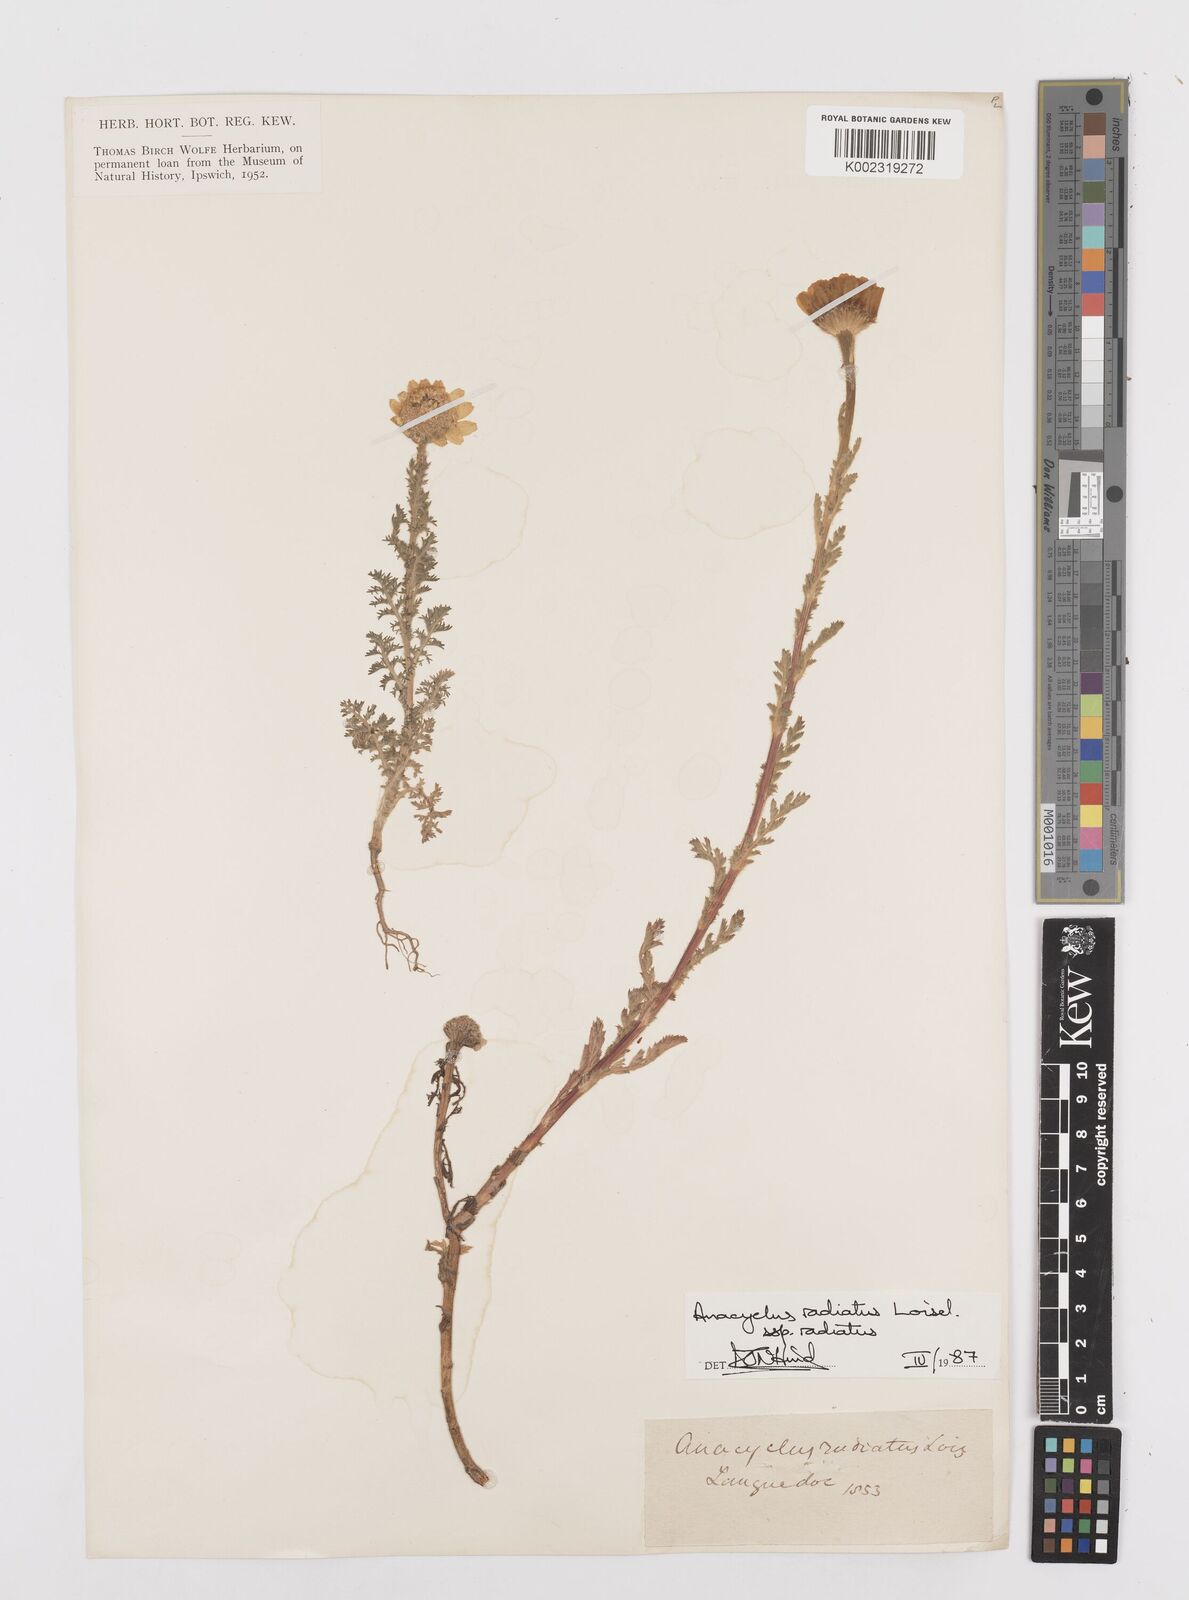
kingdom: Plantae
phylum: Tracheophyta
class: Magnoliopsida
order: Asterales
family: Asteraceae
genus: Anacyclus
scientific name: Anacyclus radiatus
